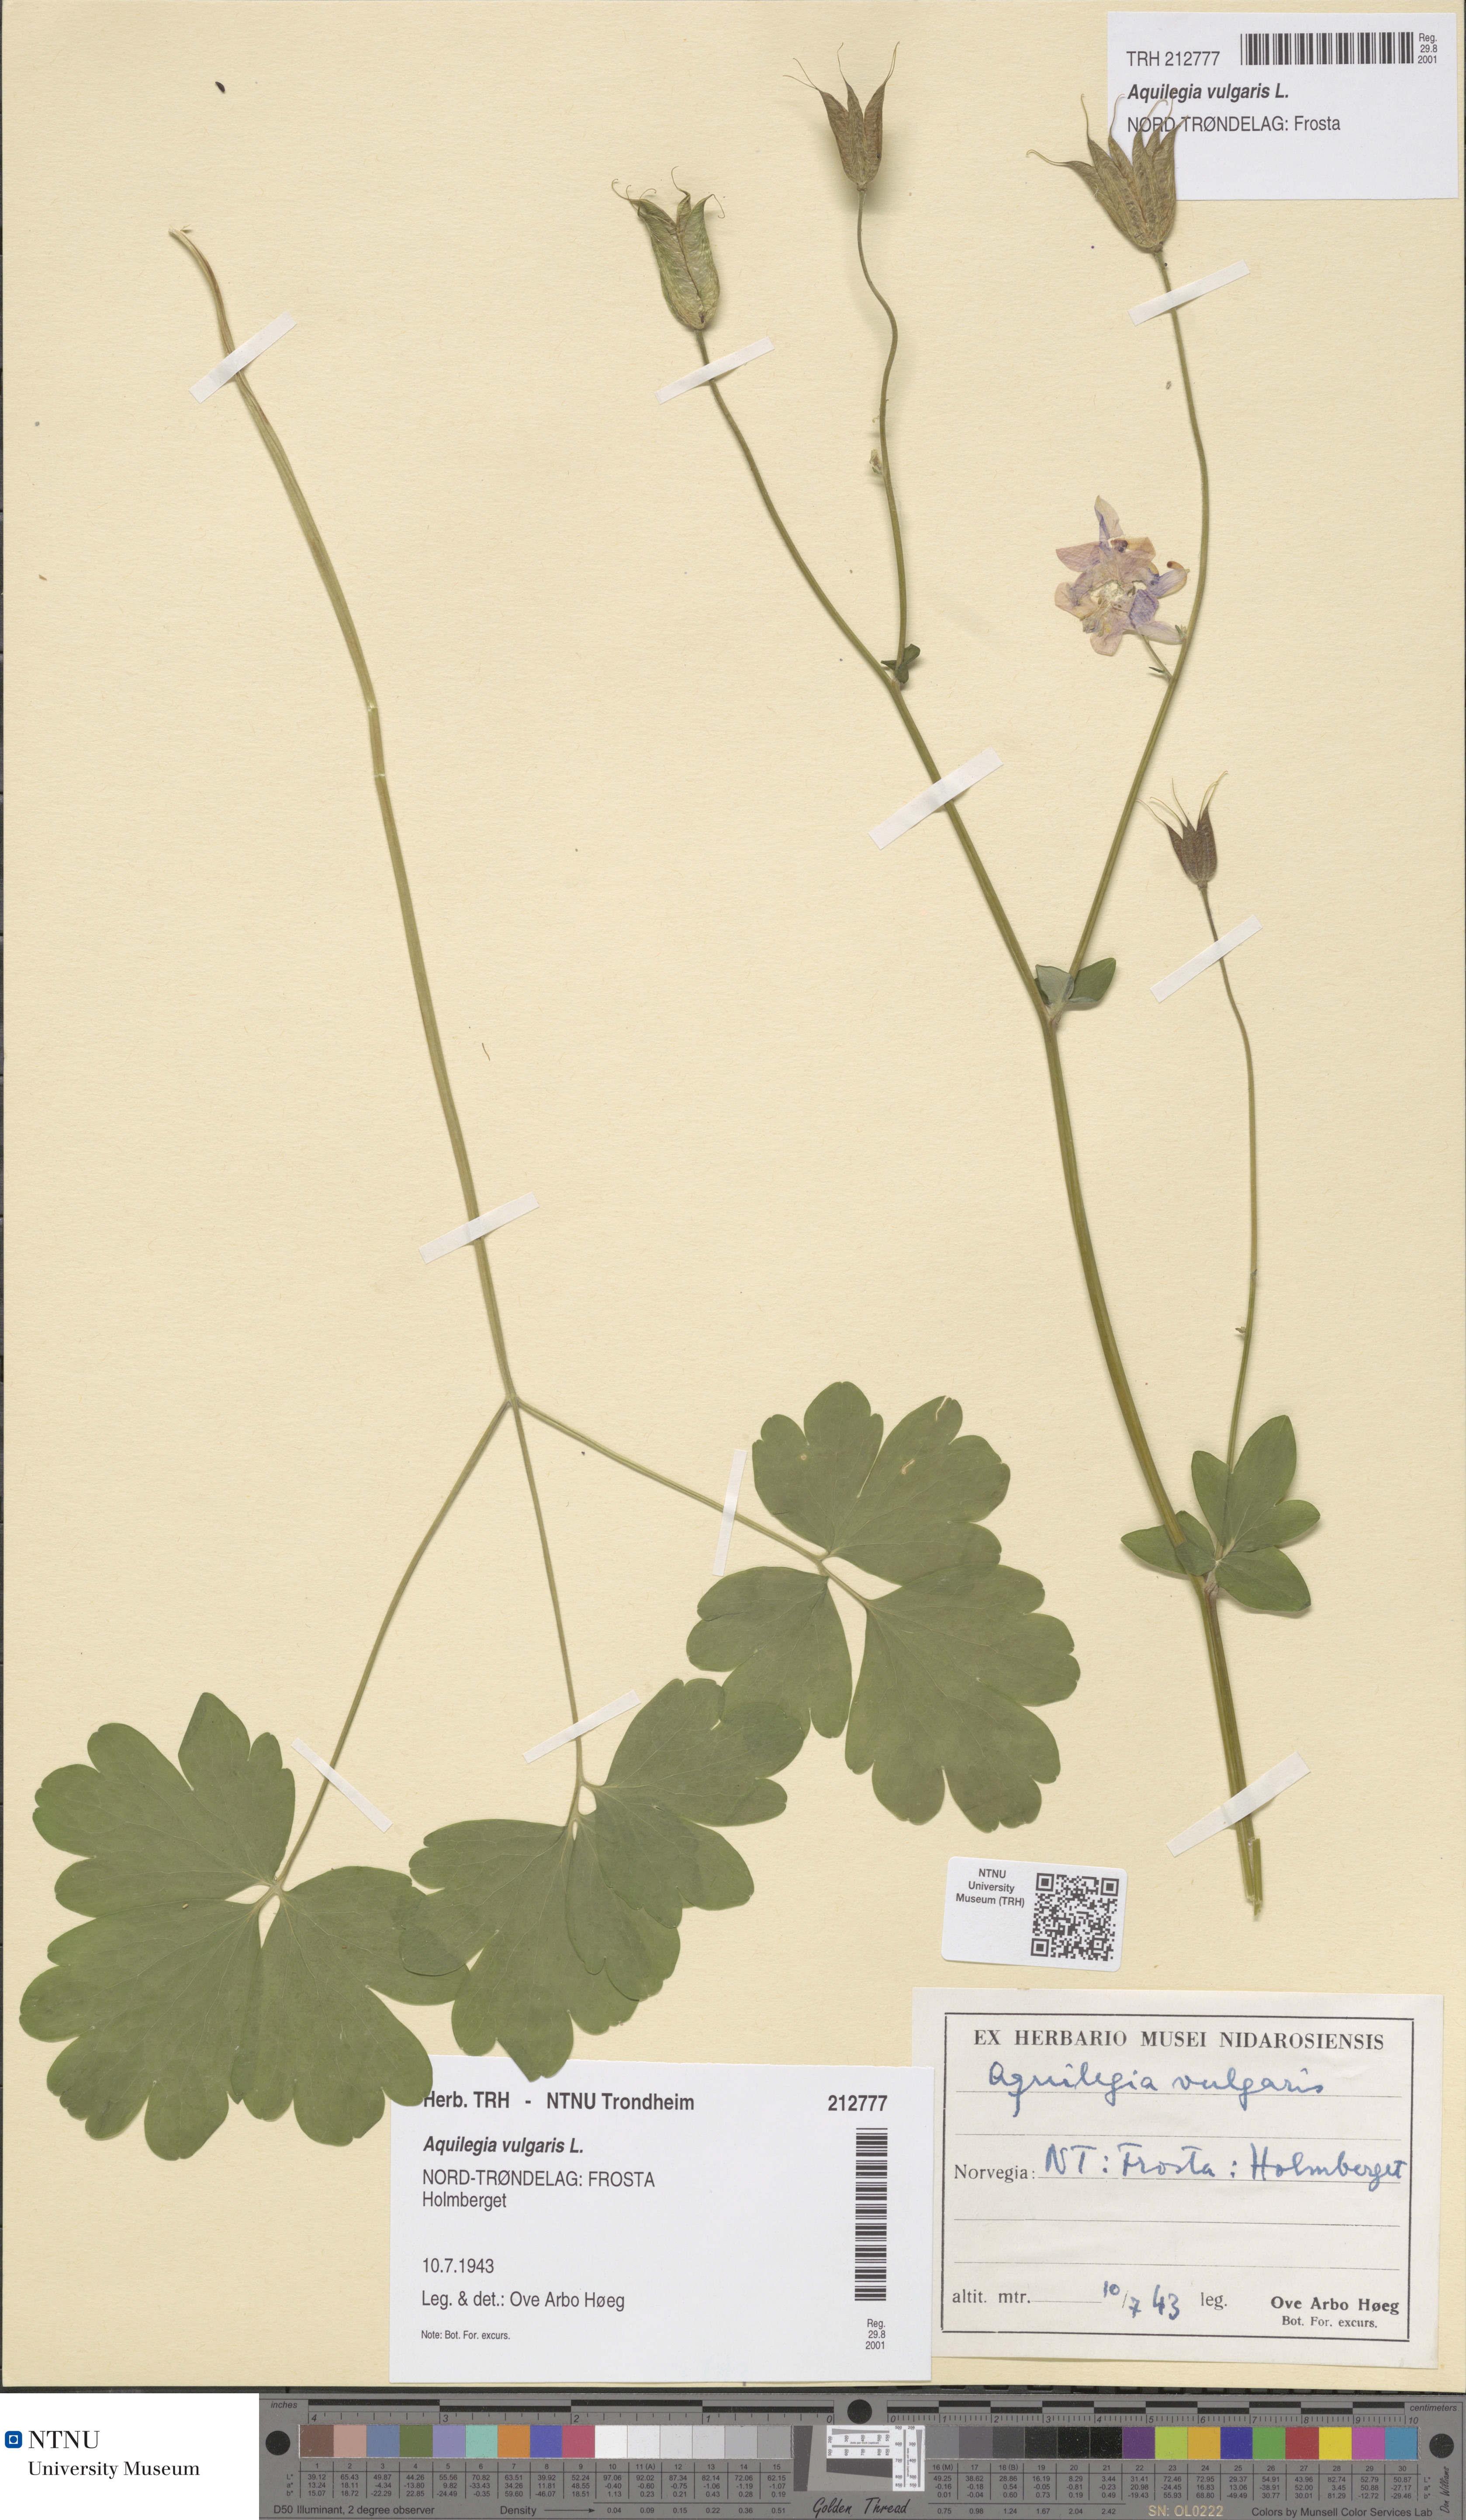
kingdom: Plantae
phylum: Tracheophyta
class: Magnoliopsida
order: Ranunculales
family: Ranunculaceae
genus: Aquilegia
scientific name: Aquilegia vulgaris
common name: Columbine
